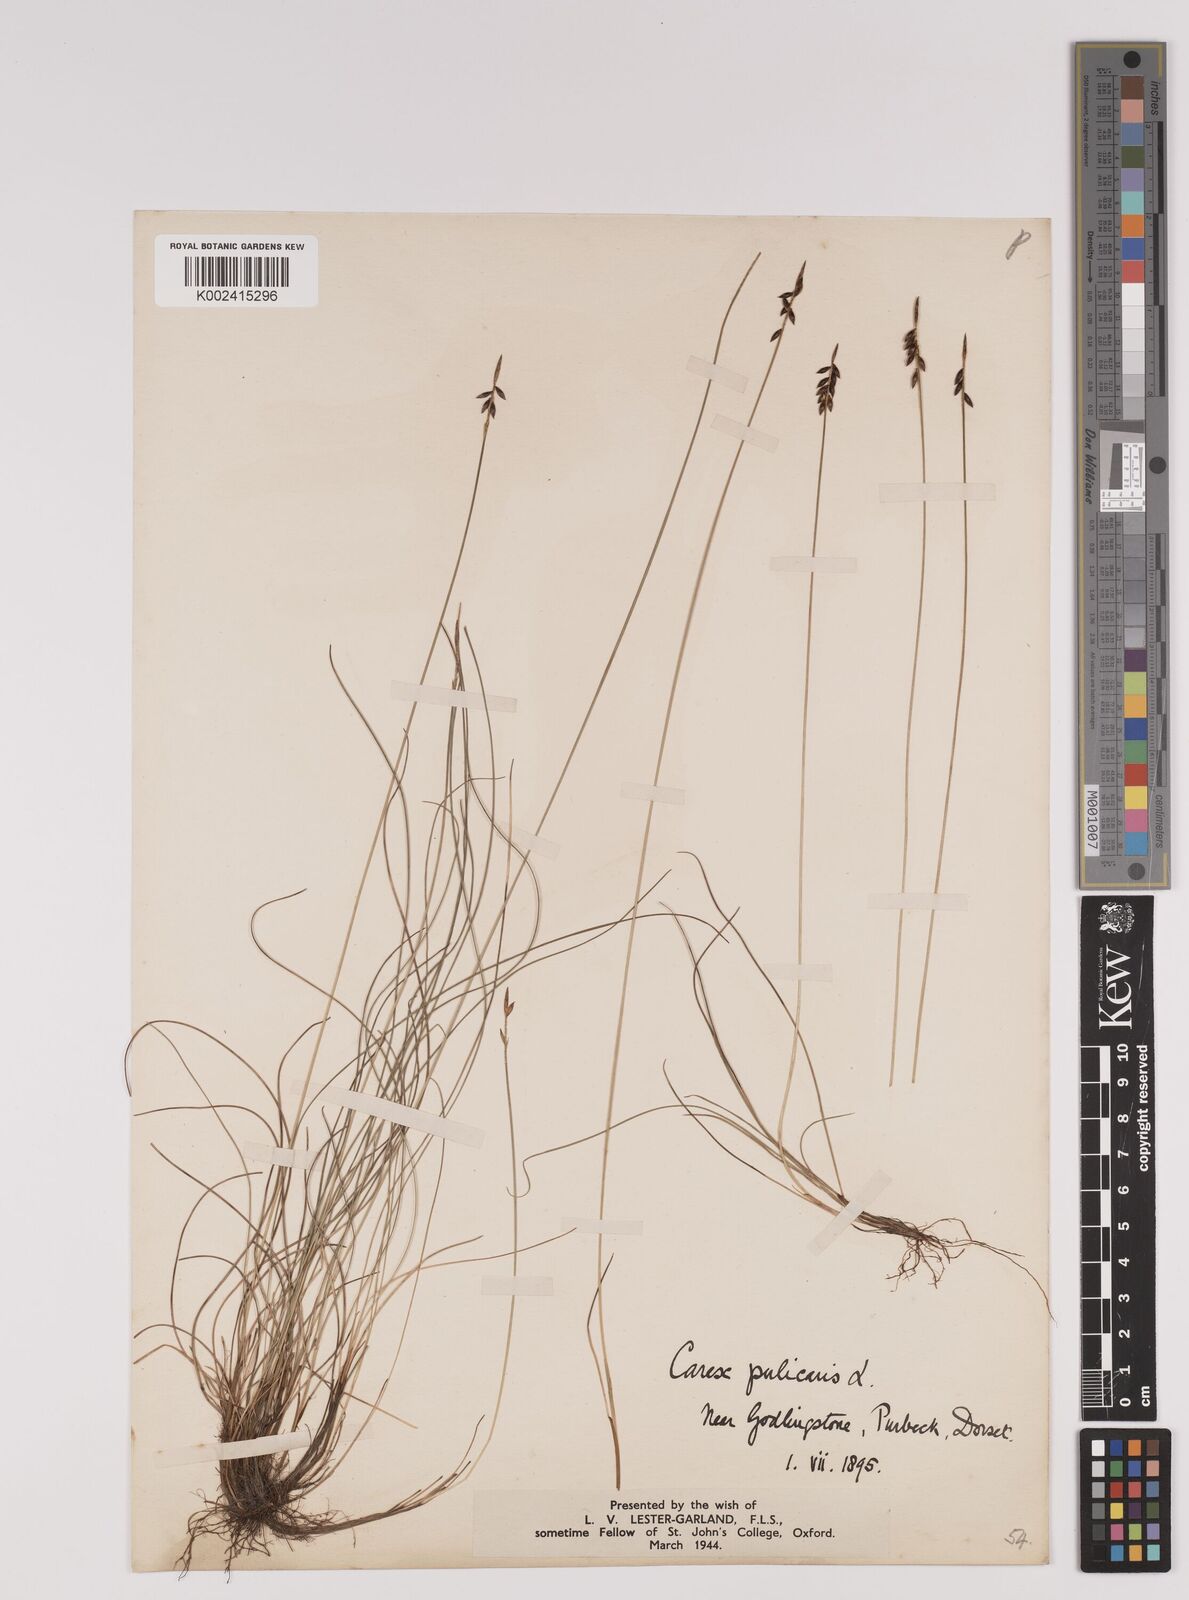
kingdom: Plantae
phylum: Tracheophyta
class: Liliopsida
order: Poales
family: Cyperaceae
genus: Carex
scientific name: Carex pulicaris
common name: Flea sedge
